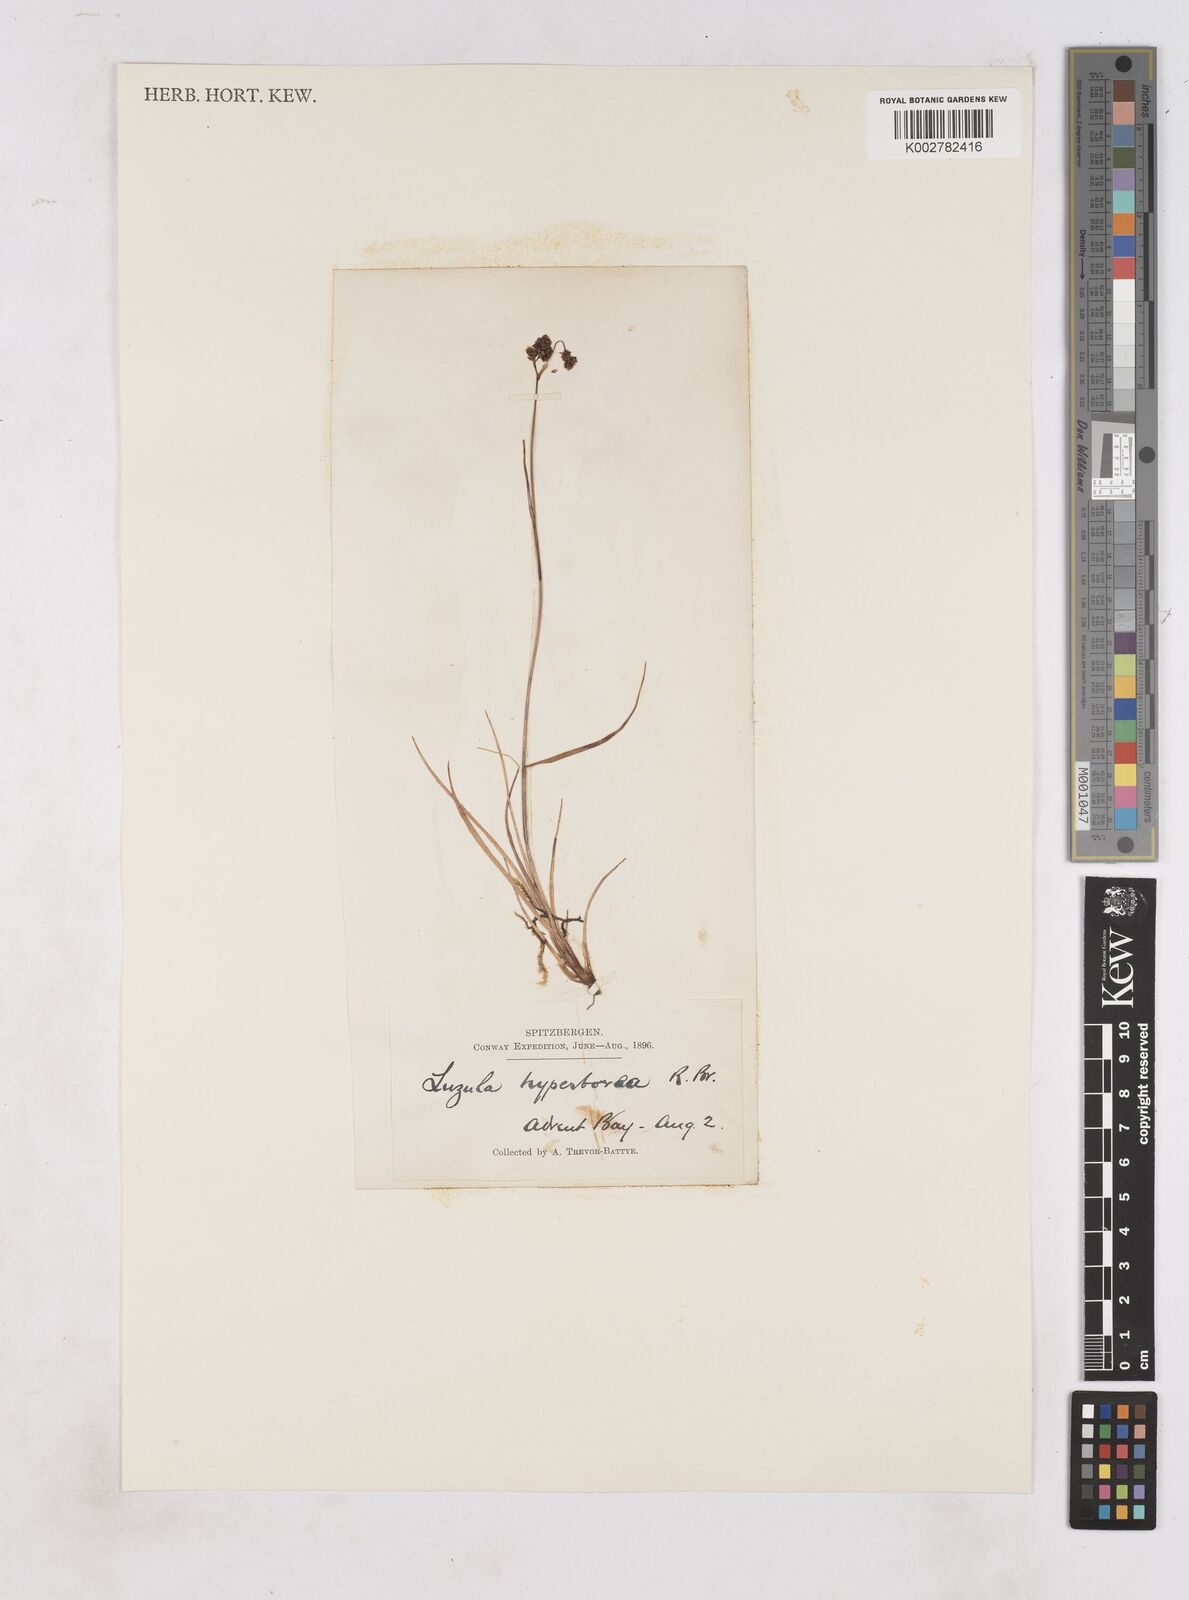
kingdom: Plantae
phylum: Tracheophyta
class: Liliopsida
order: Poales
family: Juncaceae
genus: Luzula
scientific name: Luzula nivalis
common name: Arctic woodrush
